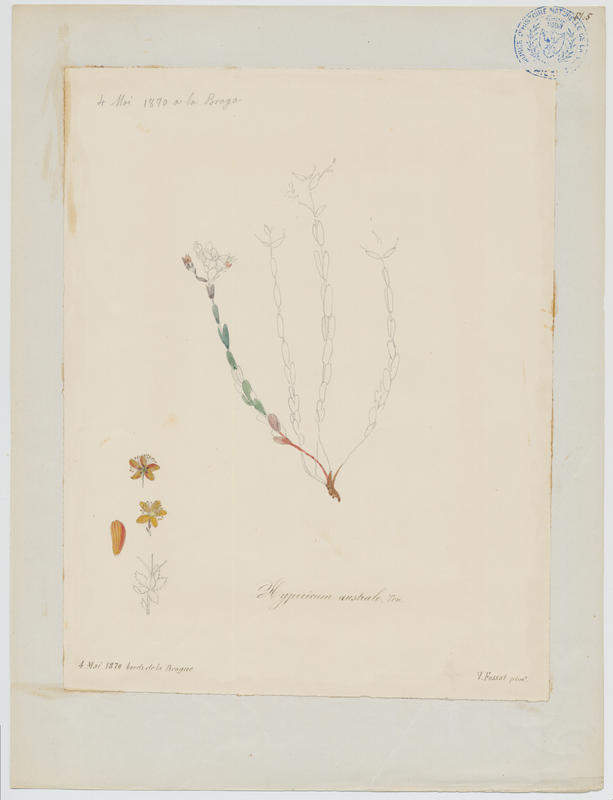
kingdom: Plantae
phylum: Tracheophyta
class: Magnoliopsida
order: Malpighiales
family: Hypericaceae
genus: Hypericum
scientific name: Hypericum australe
